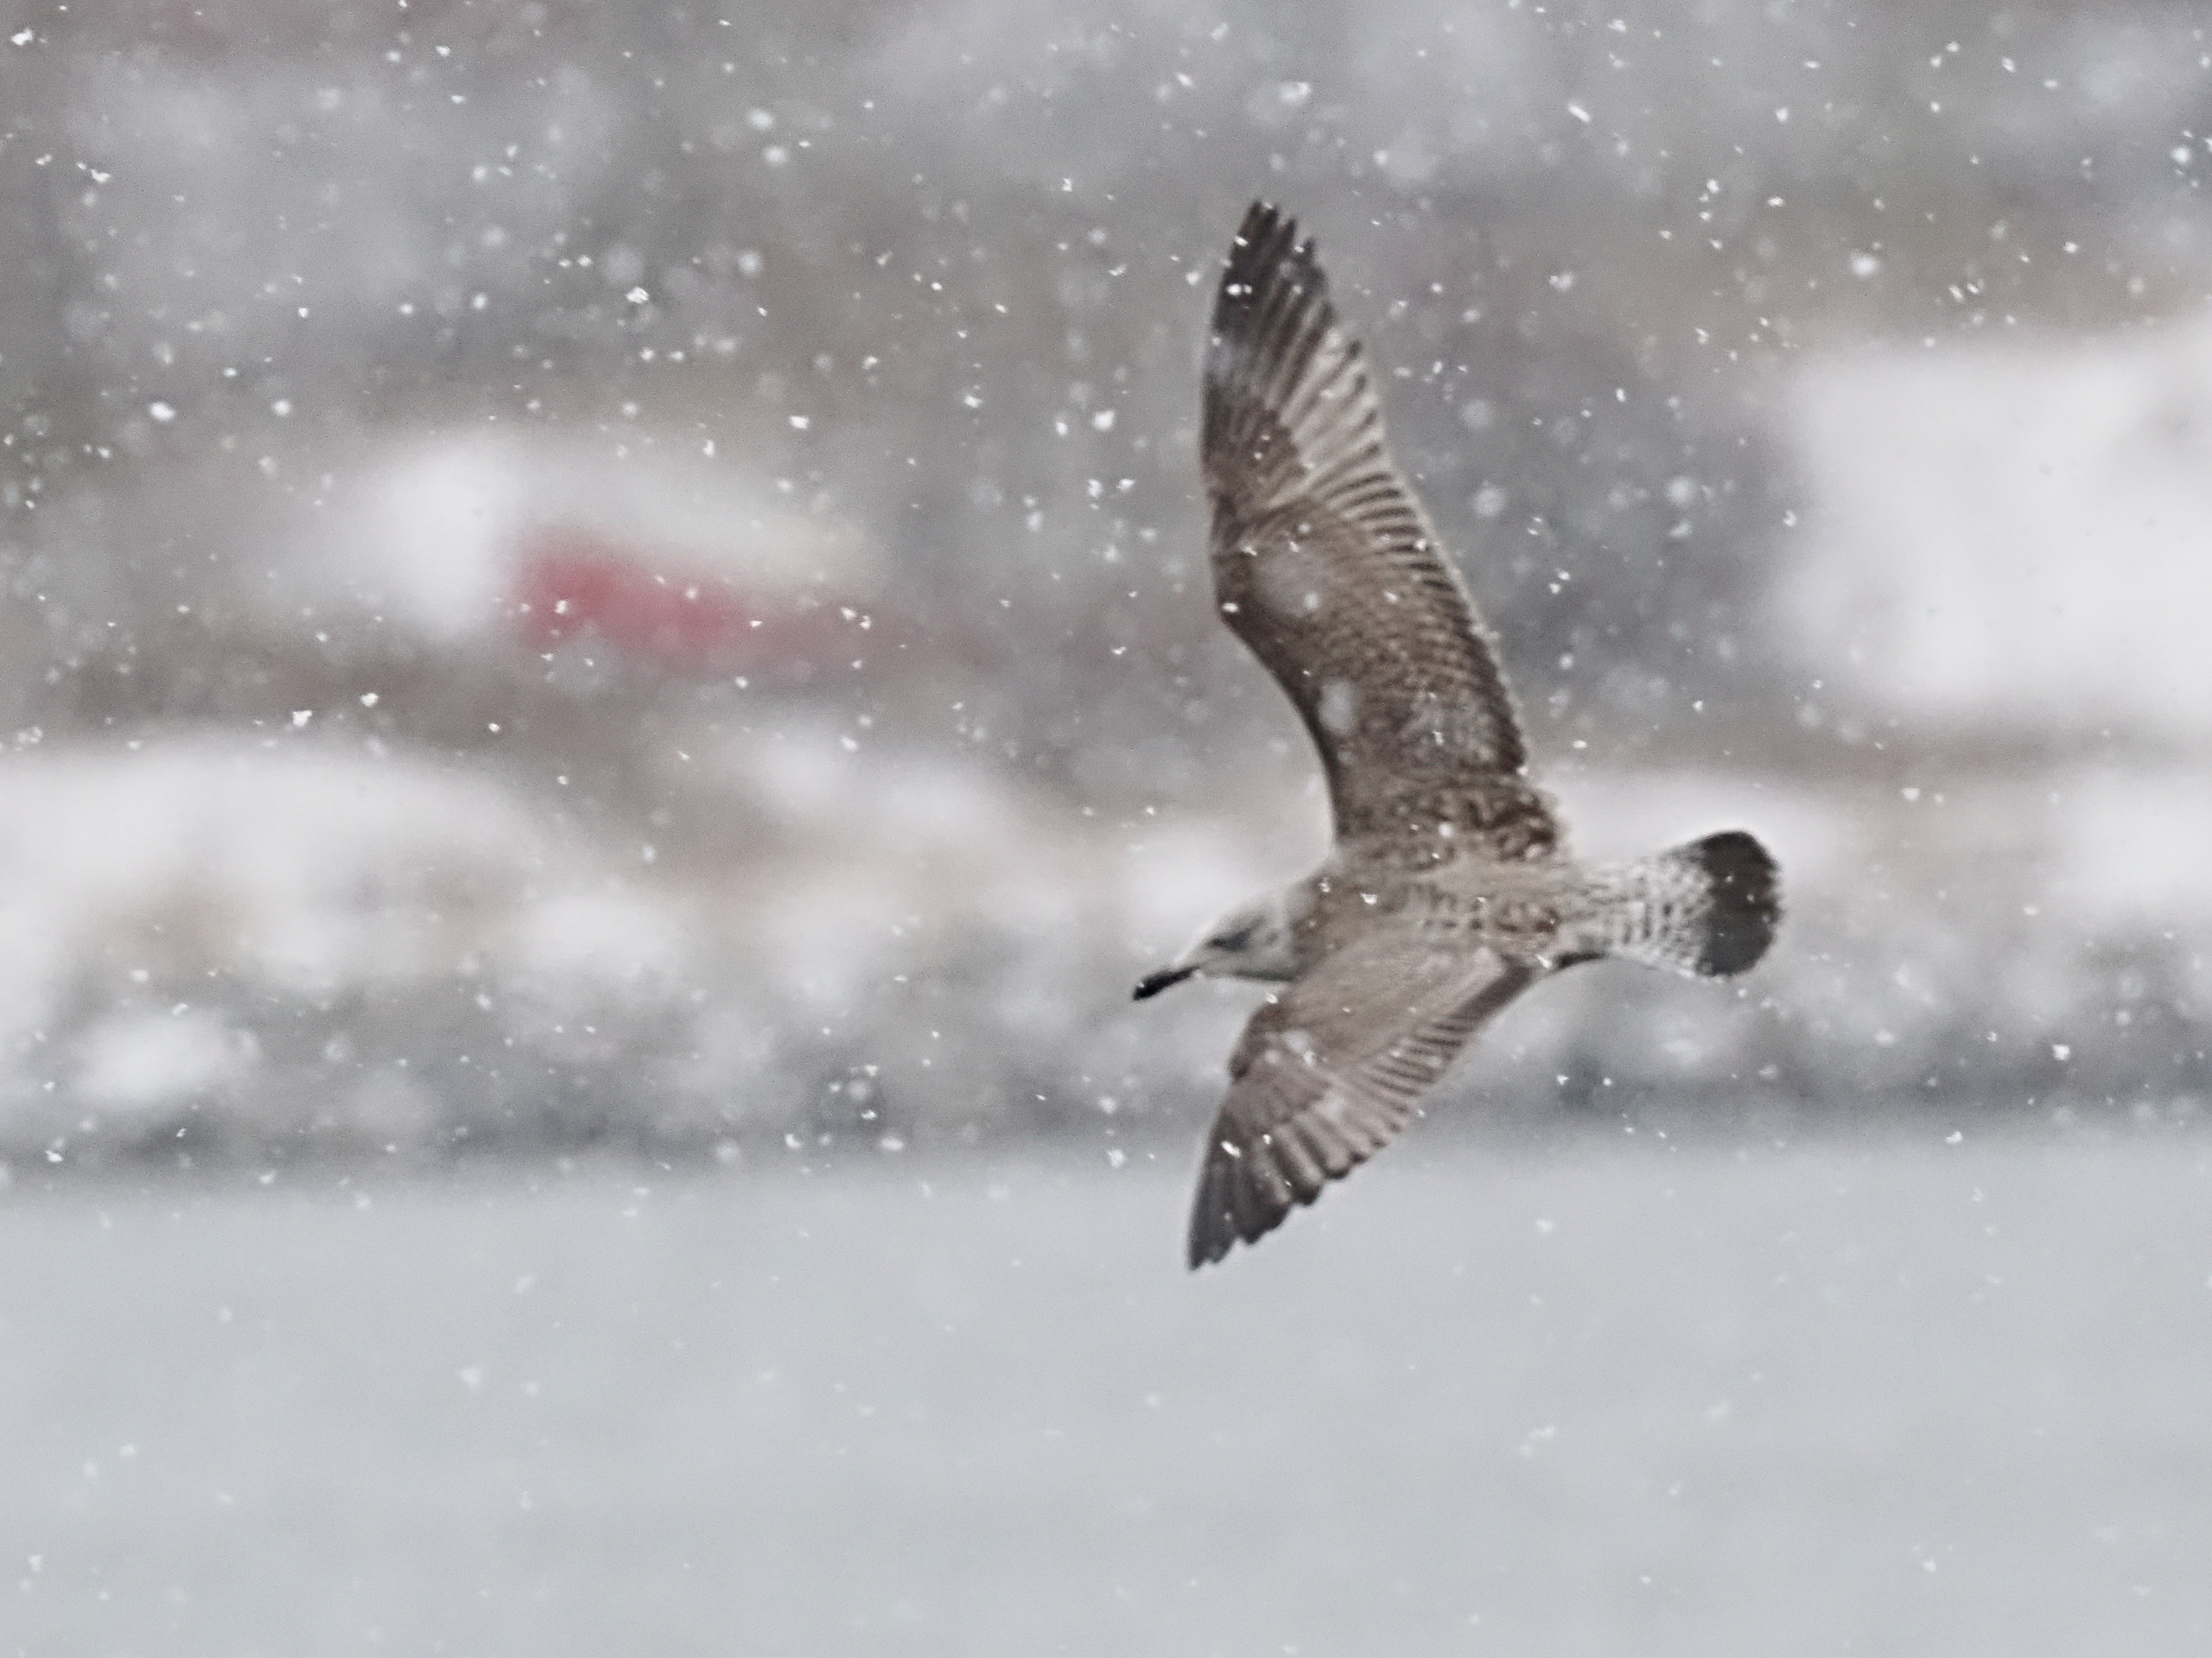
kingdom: Animalia
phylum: Chordata
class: Aves
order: Charadriiformes
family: Laridae
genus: Larus
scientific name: Larus argentatus
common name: Sølvmåge
